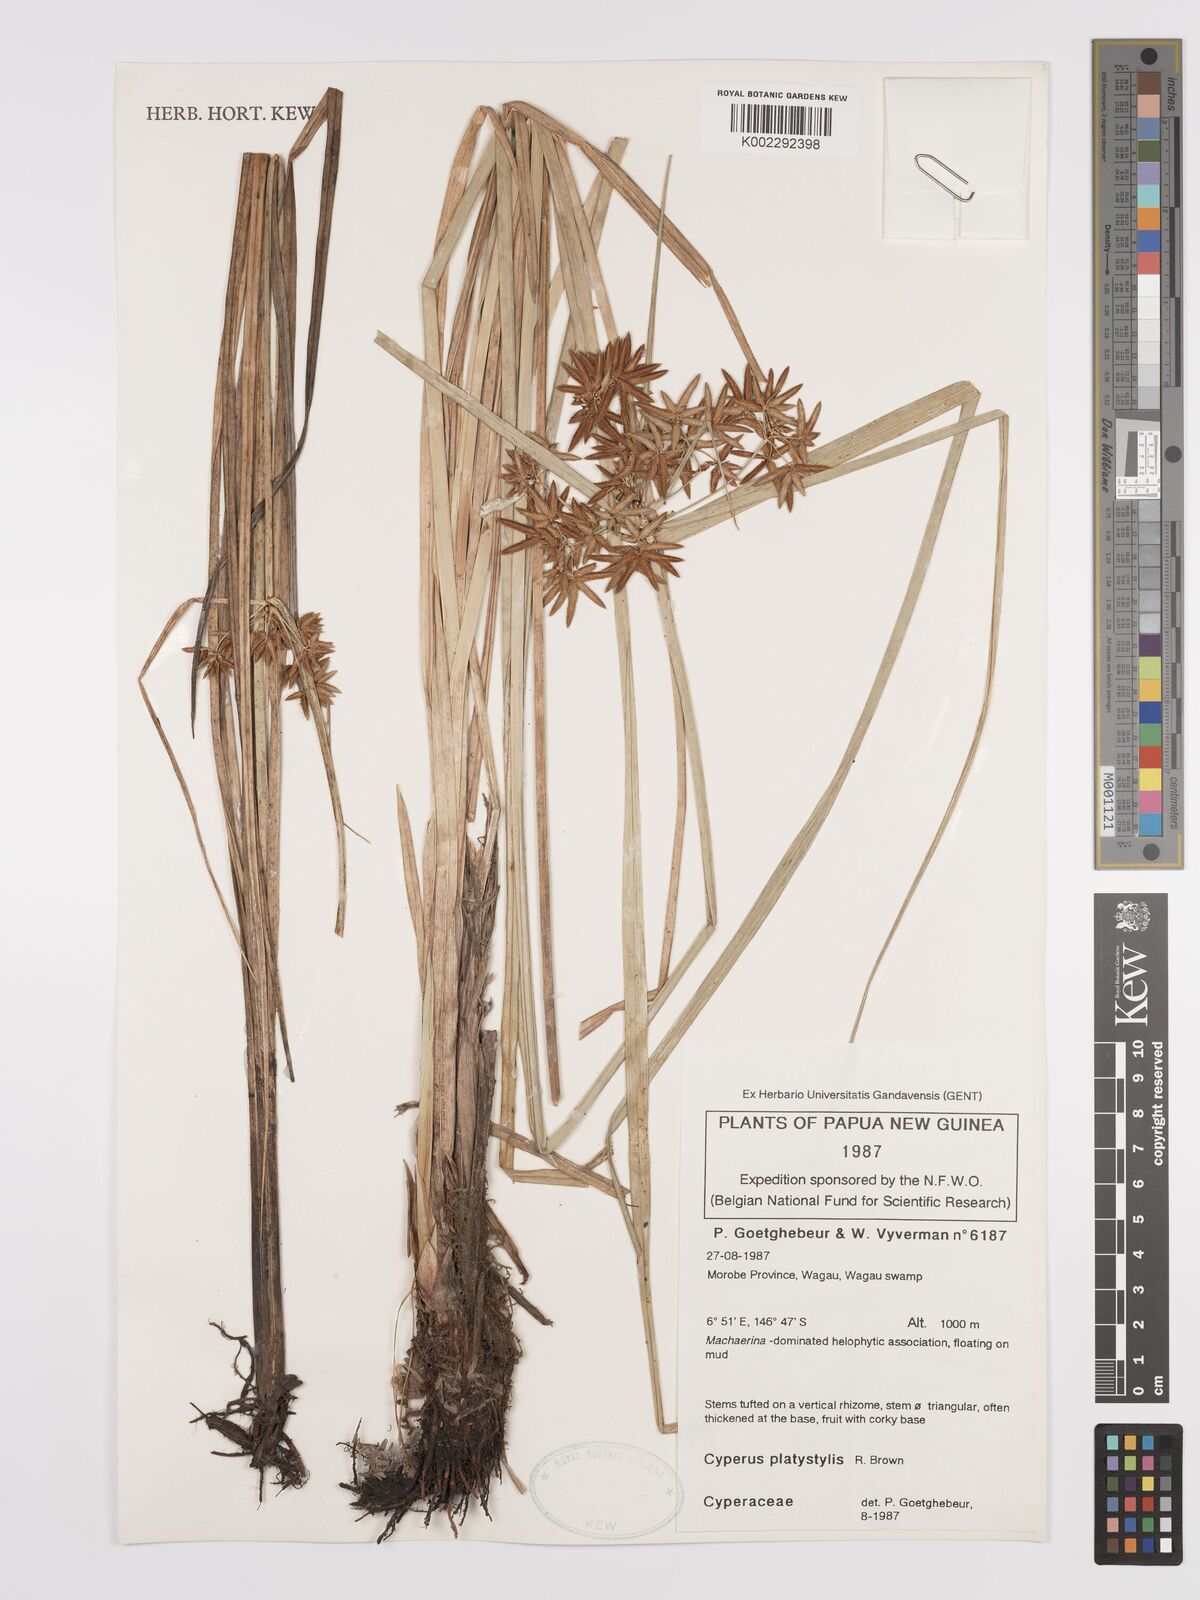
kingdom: Plantae
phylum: Tracheophyta
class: Liliopsida
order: Poales
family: Cyperaceae
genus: Cyperus
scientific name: Cyperus platystylis
